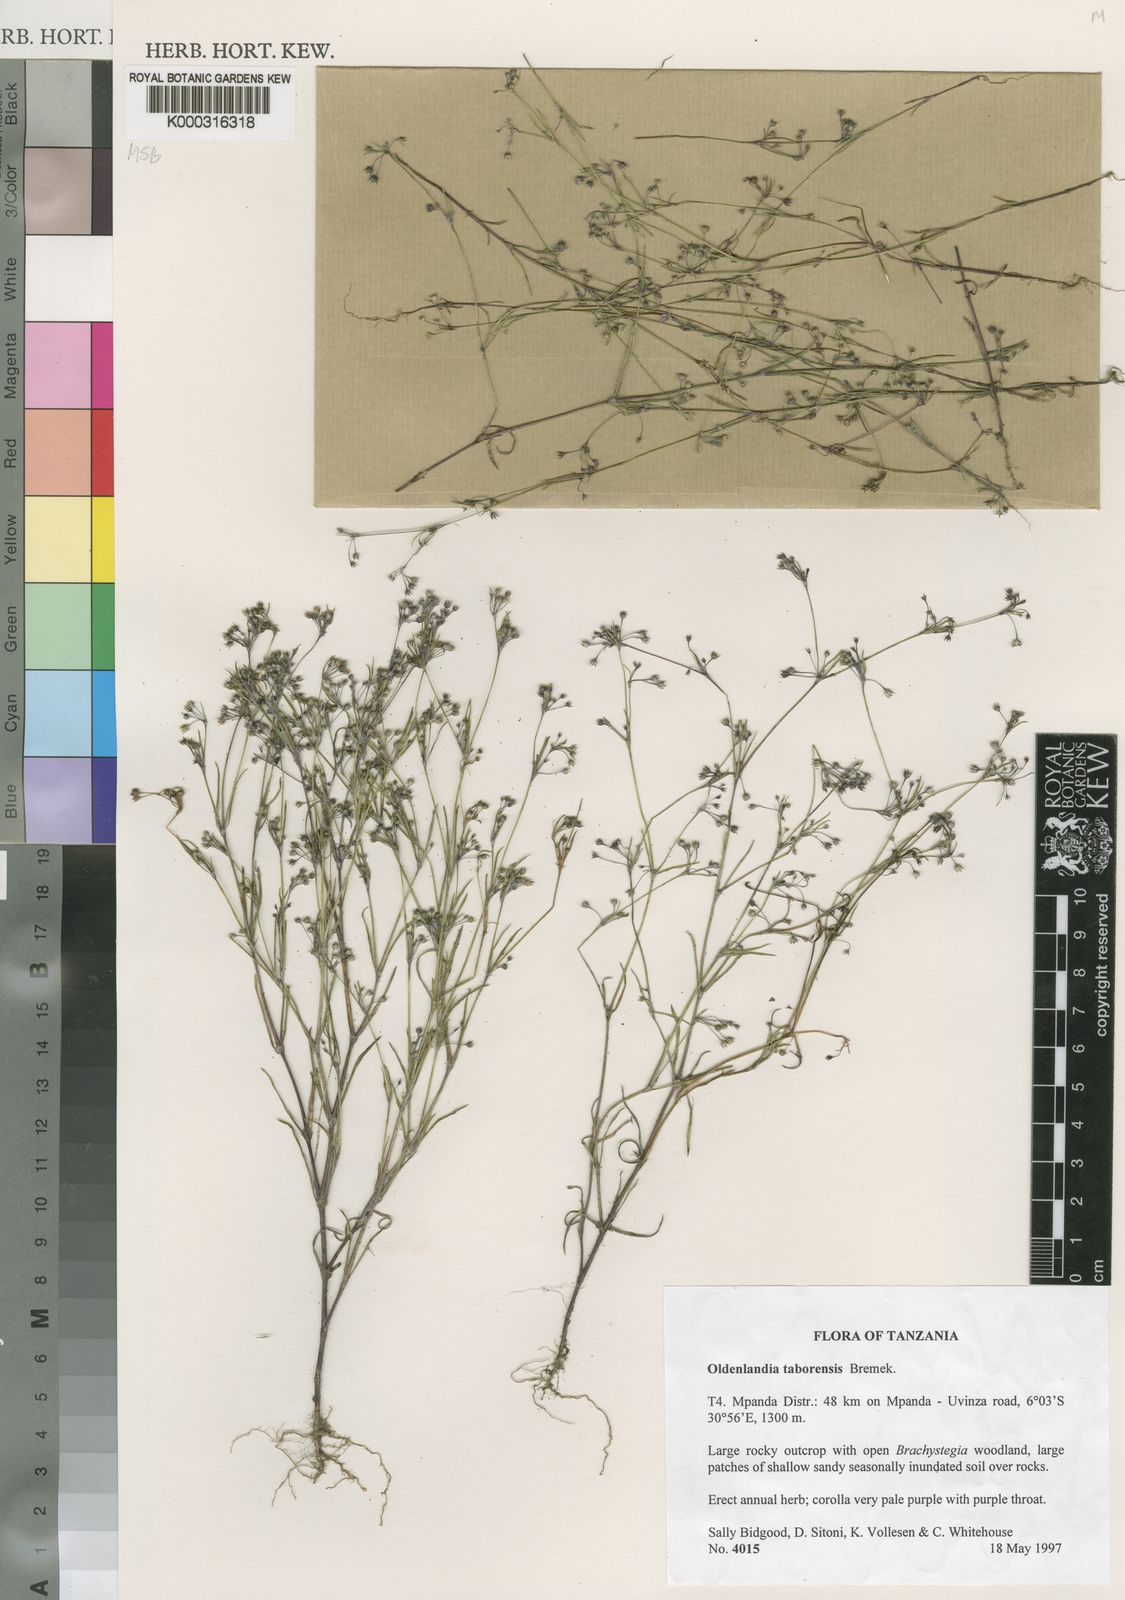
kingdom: Plantae
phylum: Tracheophyta
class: Magnoliopsida
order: Gentianales
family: Rubiaceae
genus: Oldenlandia
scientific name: Oldenlandia taborensis
